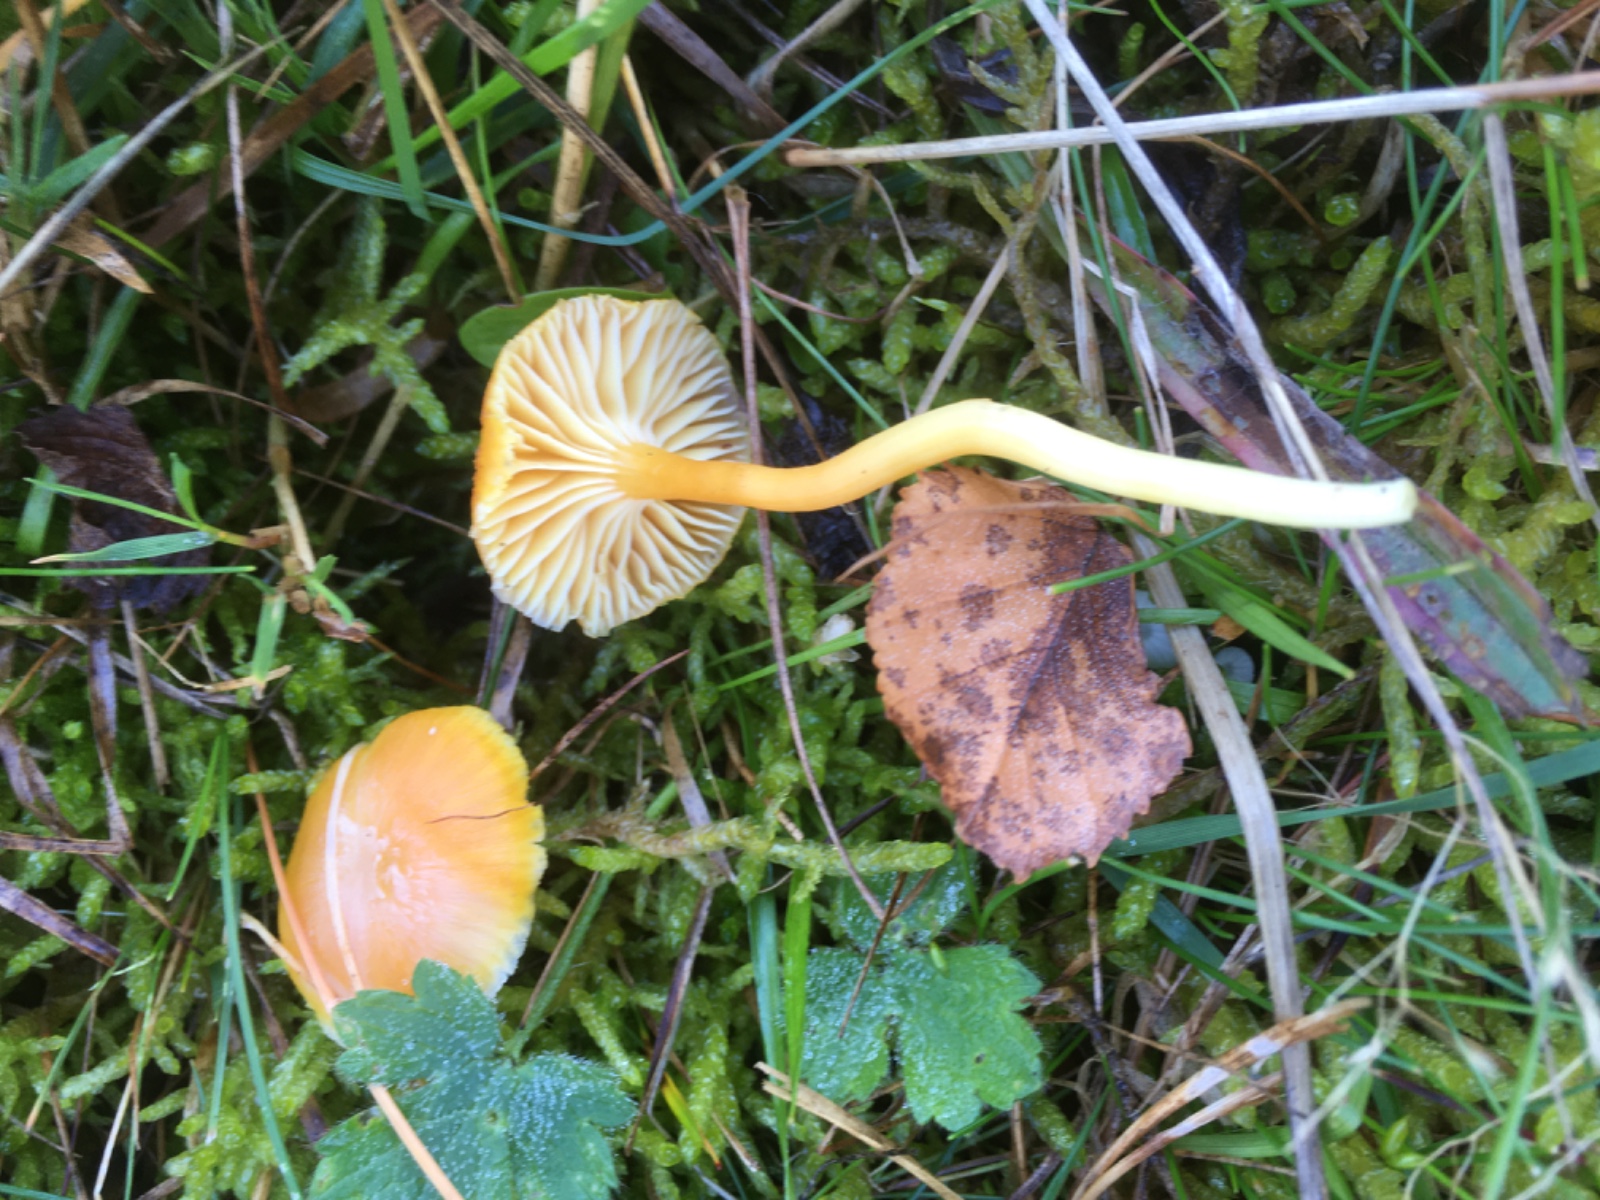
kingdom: Fungi
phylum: Basidiomycota
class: Agaricomycetes
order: Agaricales
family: Hygrophoraceae
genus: Hygrocybe
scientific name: Hygrocybe ceracea
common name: voksgul vokshat
